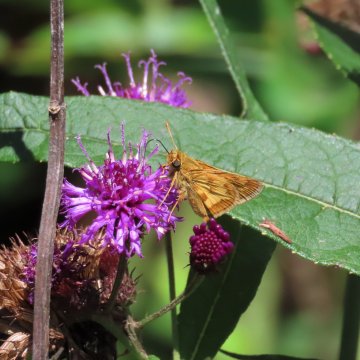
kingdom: Animalia
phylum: Arthropoda
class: Insecta
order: Lepidoptera
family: Hesperiidae
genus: Polites
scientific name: Polites coras
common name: Peck's Skipper
